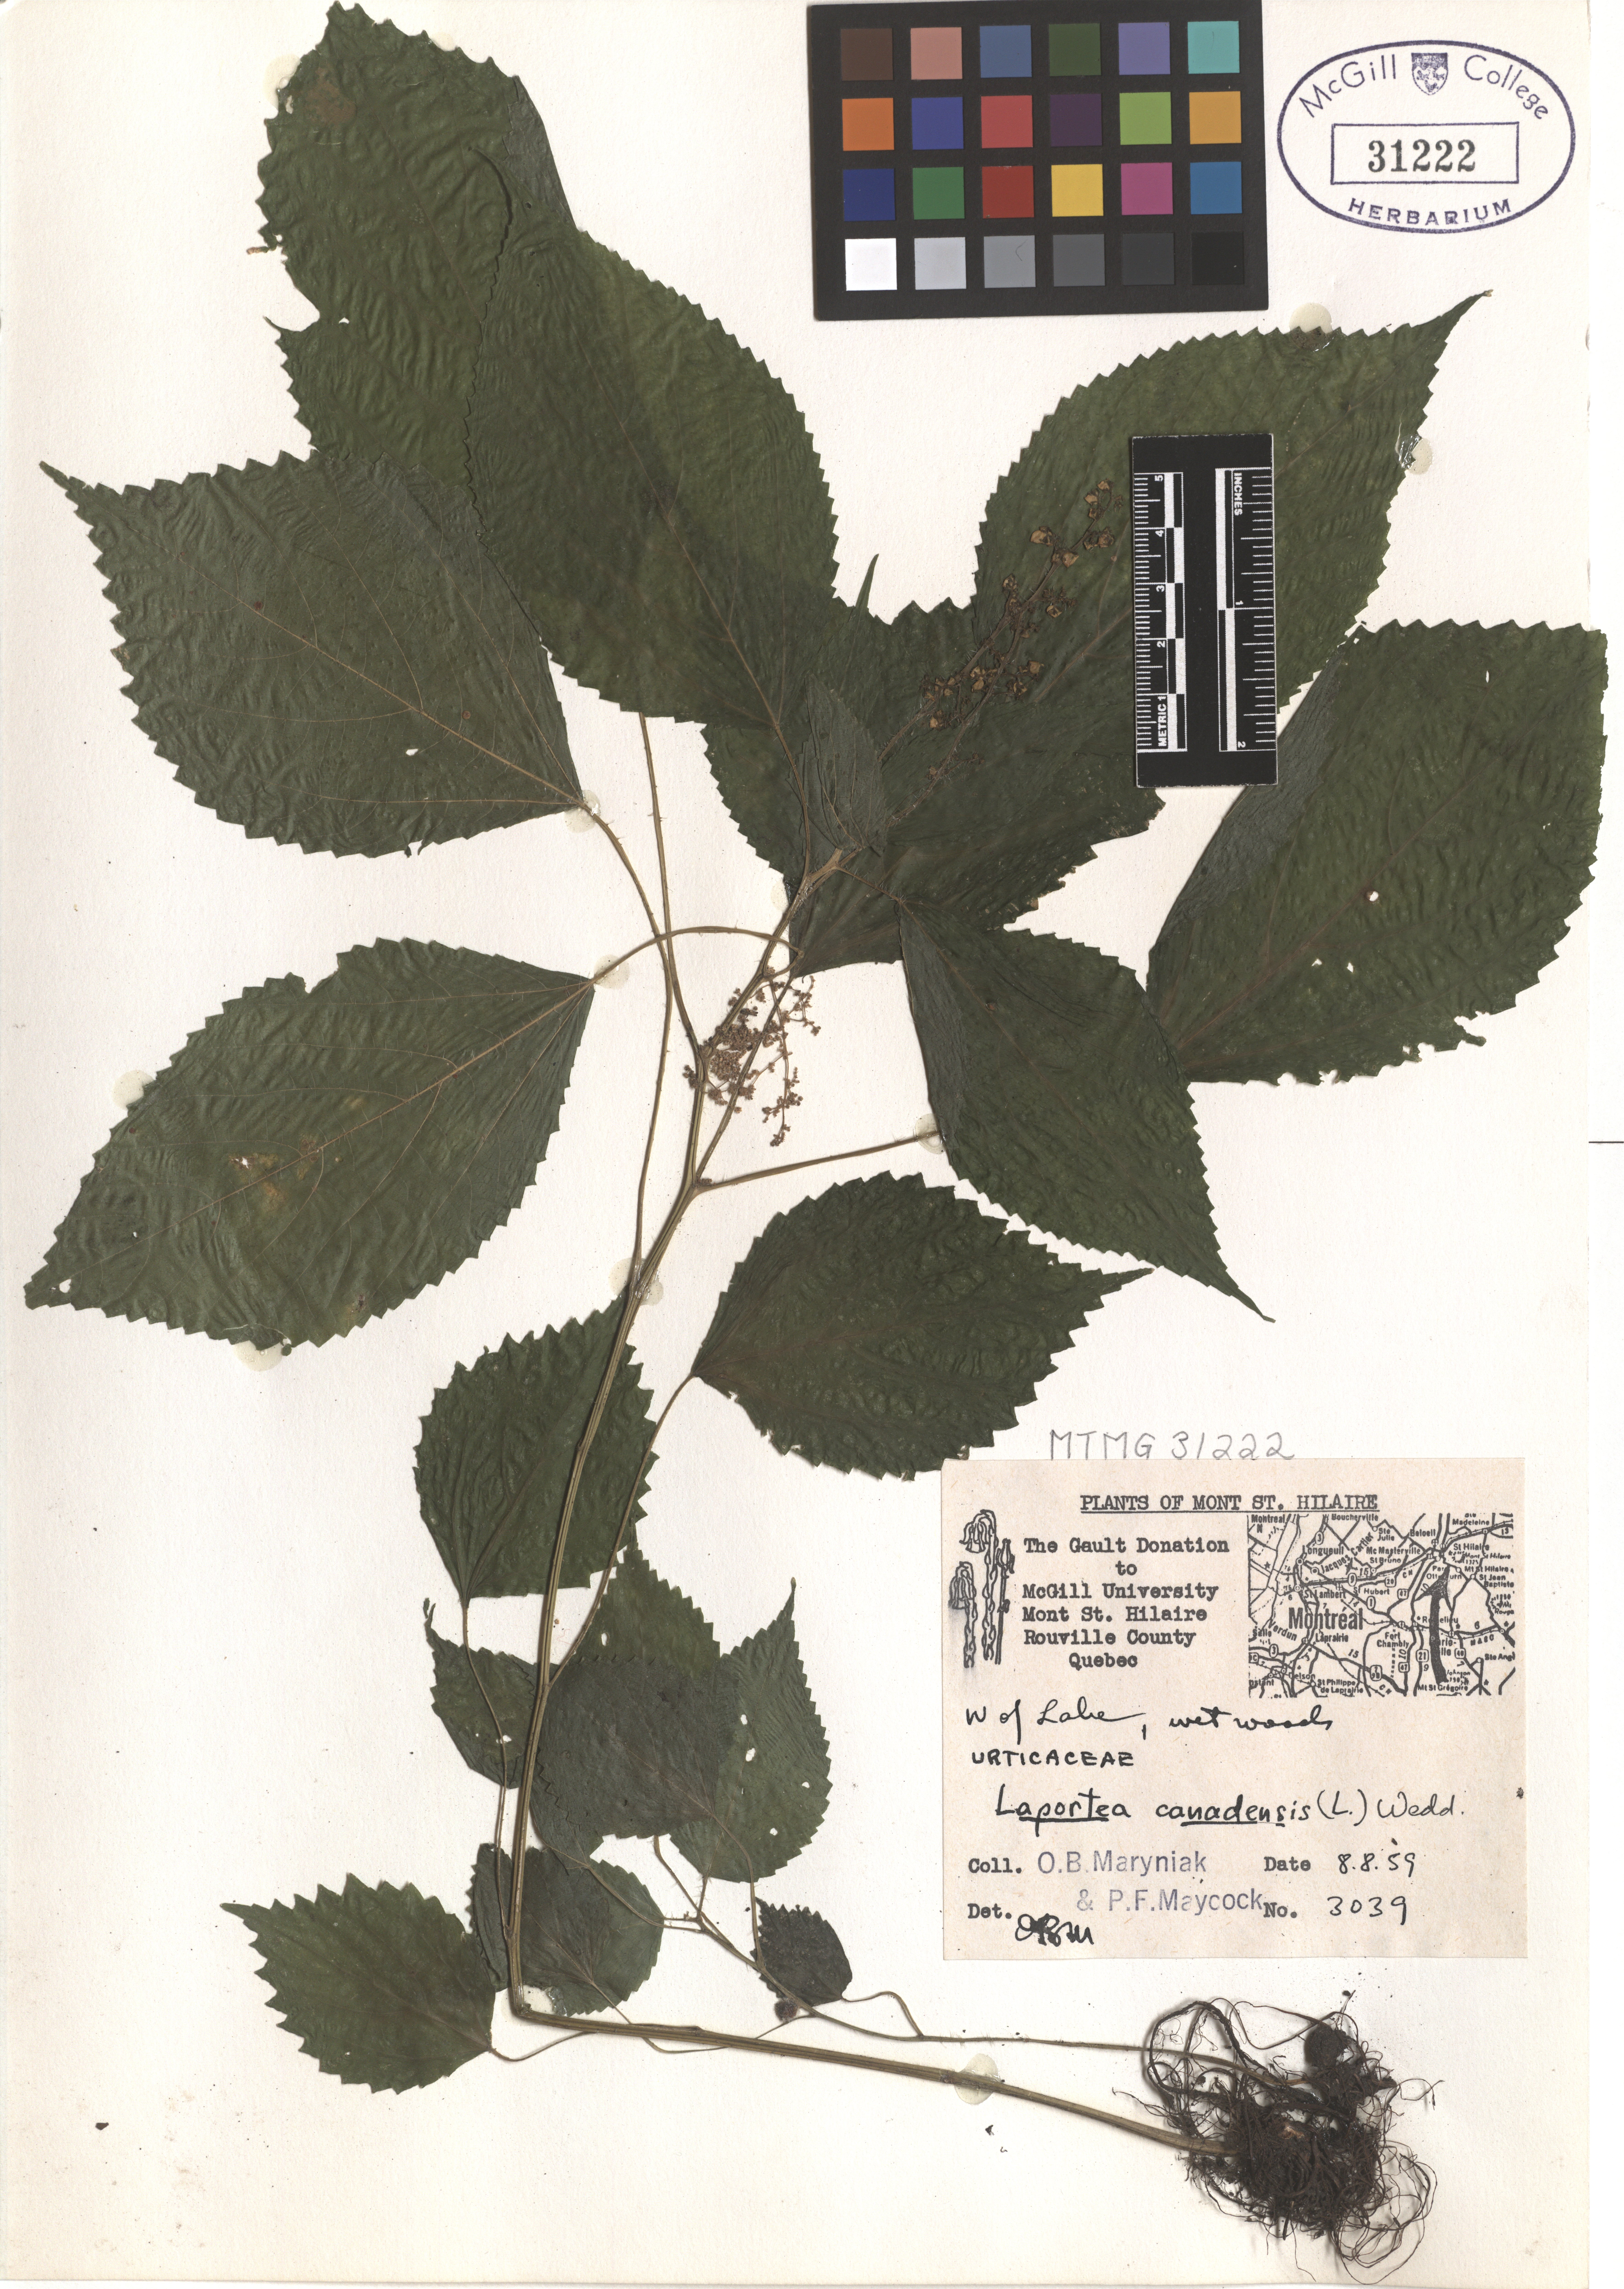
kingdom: Plantae
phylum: Tracheophyta
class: Magnoliopsida
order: Rosales
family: Urticaceae
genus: Laportea
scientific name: Laportea canadensis
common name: Canada nettle
